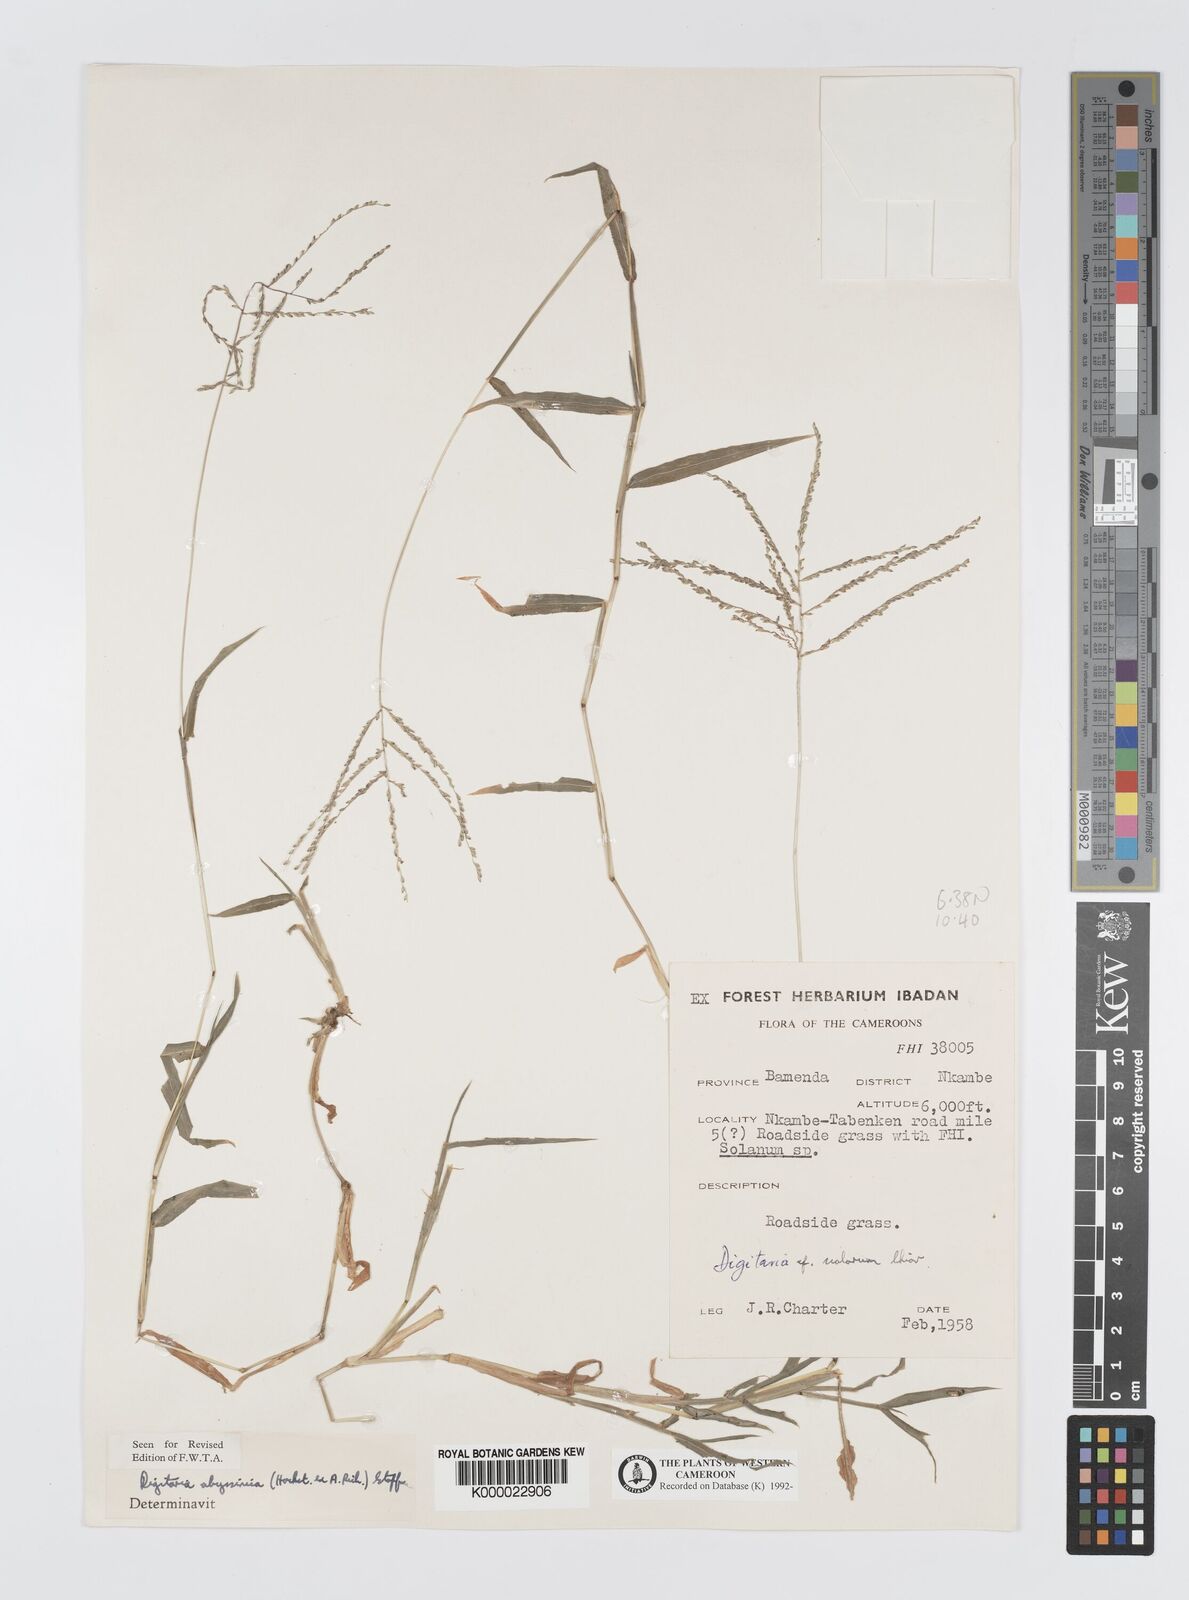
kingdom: Plantae
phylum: Tracheophyta
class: Liliopsida
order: Poales
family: Poaceae
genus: Digitaria
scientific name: Digitaria abyssinica
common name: African couchgrass
